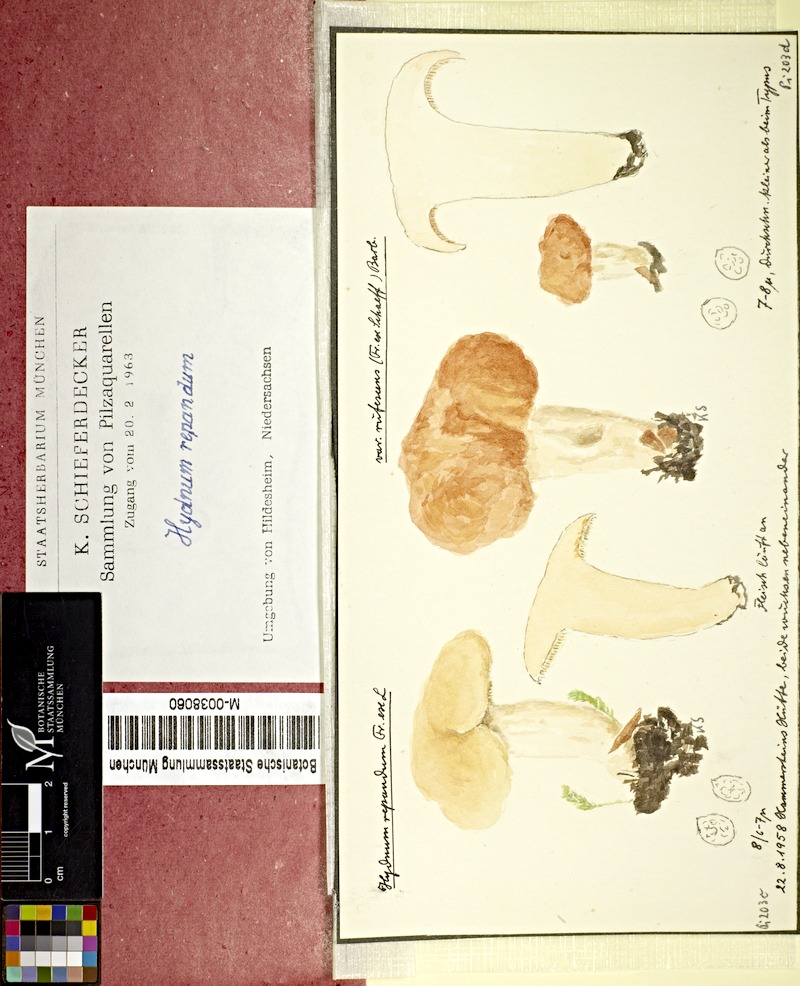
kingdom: Fungi
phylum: Basidiomycota
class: Agaricomycetes
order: Cantharellales
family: Hydnaceae
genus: Hydnum
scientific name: Hydnum repandum
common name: Wood hedgehog
